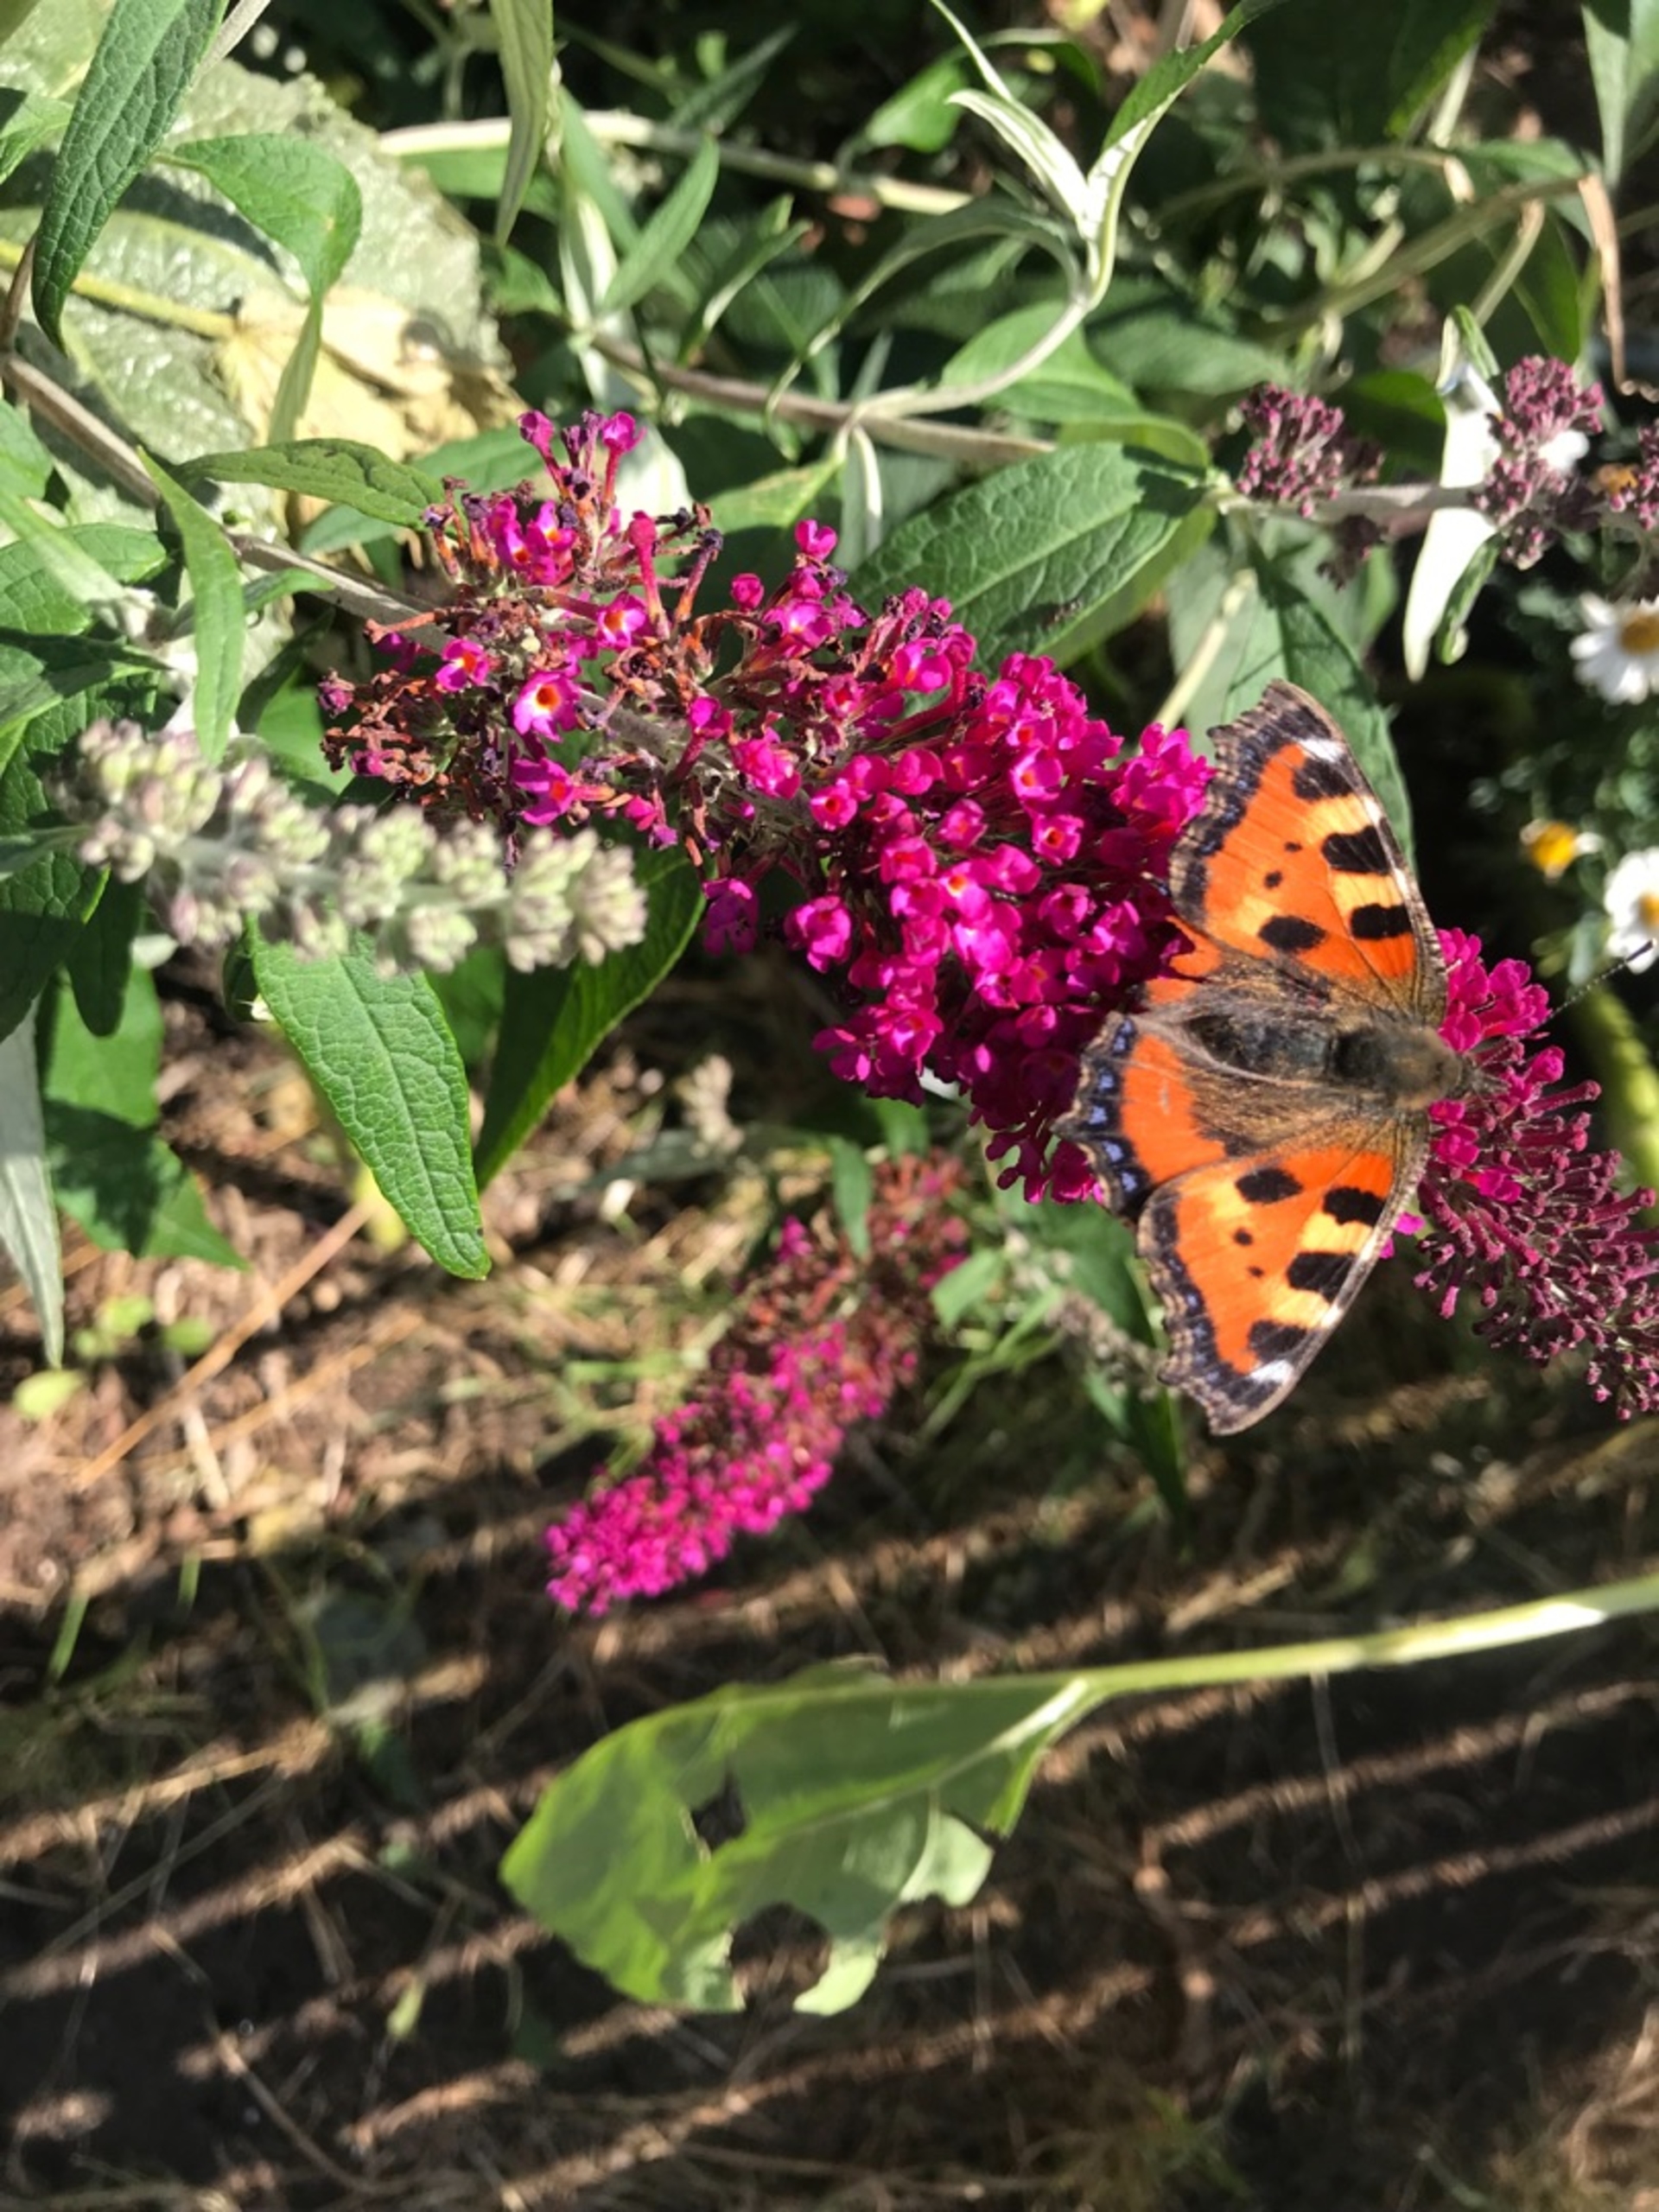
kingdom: Animalia
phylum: Arthropoda
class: Insecta
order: Lepidoptera
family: Nymphalidae
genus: Aglais
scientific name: Aglais urticae
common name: Nældens takvinge
